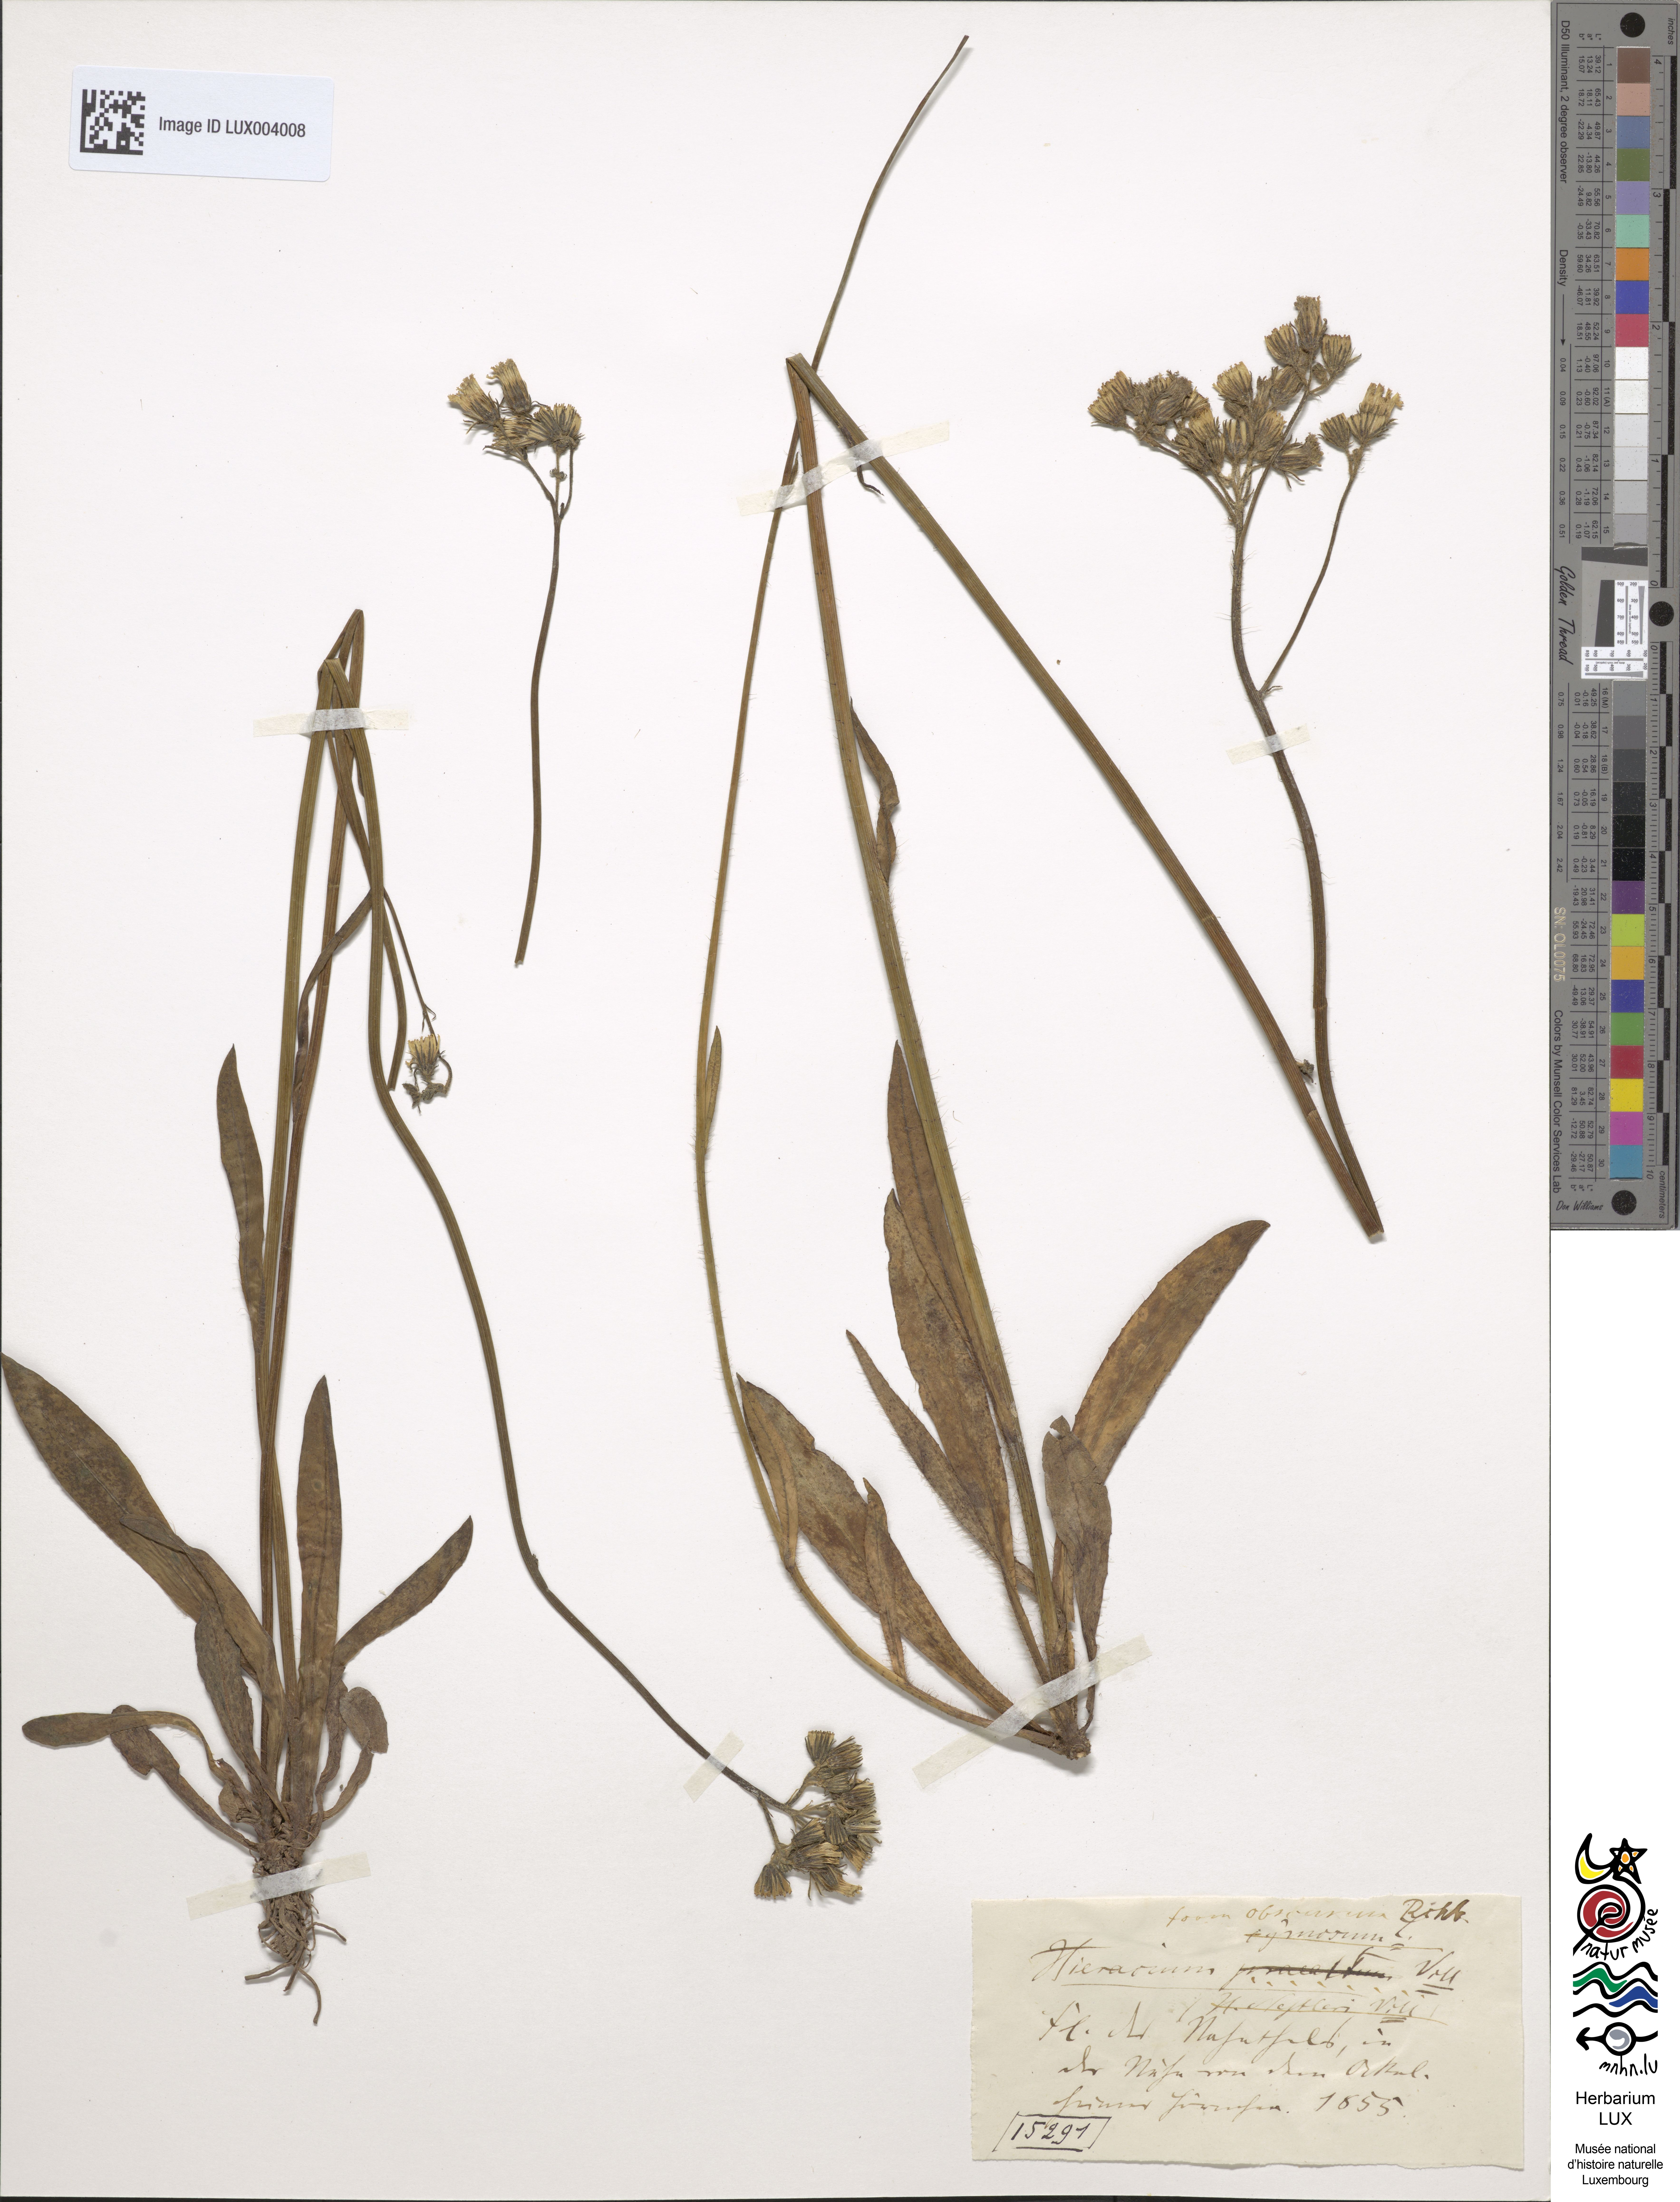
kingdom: Plantae
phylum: Tracheophyta
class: Magnoliopsida
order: Asterales
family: Asteraceae
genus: Pilosella
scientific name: Pilosella piloselloides
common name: Glaucous king-devil
